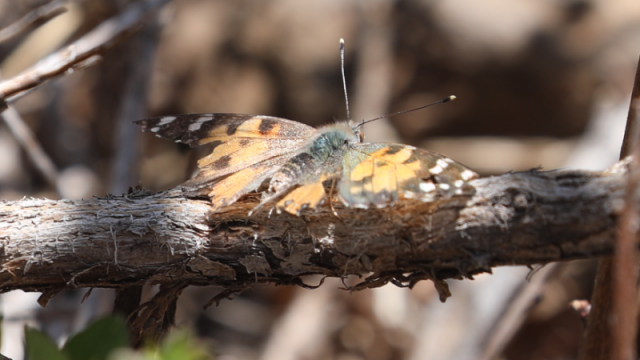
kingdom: Animalia
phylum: Arthropoda
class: Insecta
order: Lepidoptera
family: Nymphalidae
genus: Vanessa
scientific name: Vanessa annabella
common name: West Coast Lady
